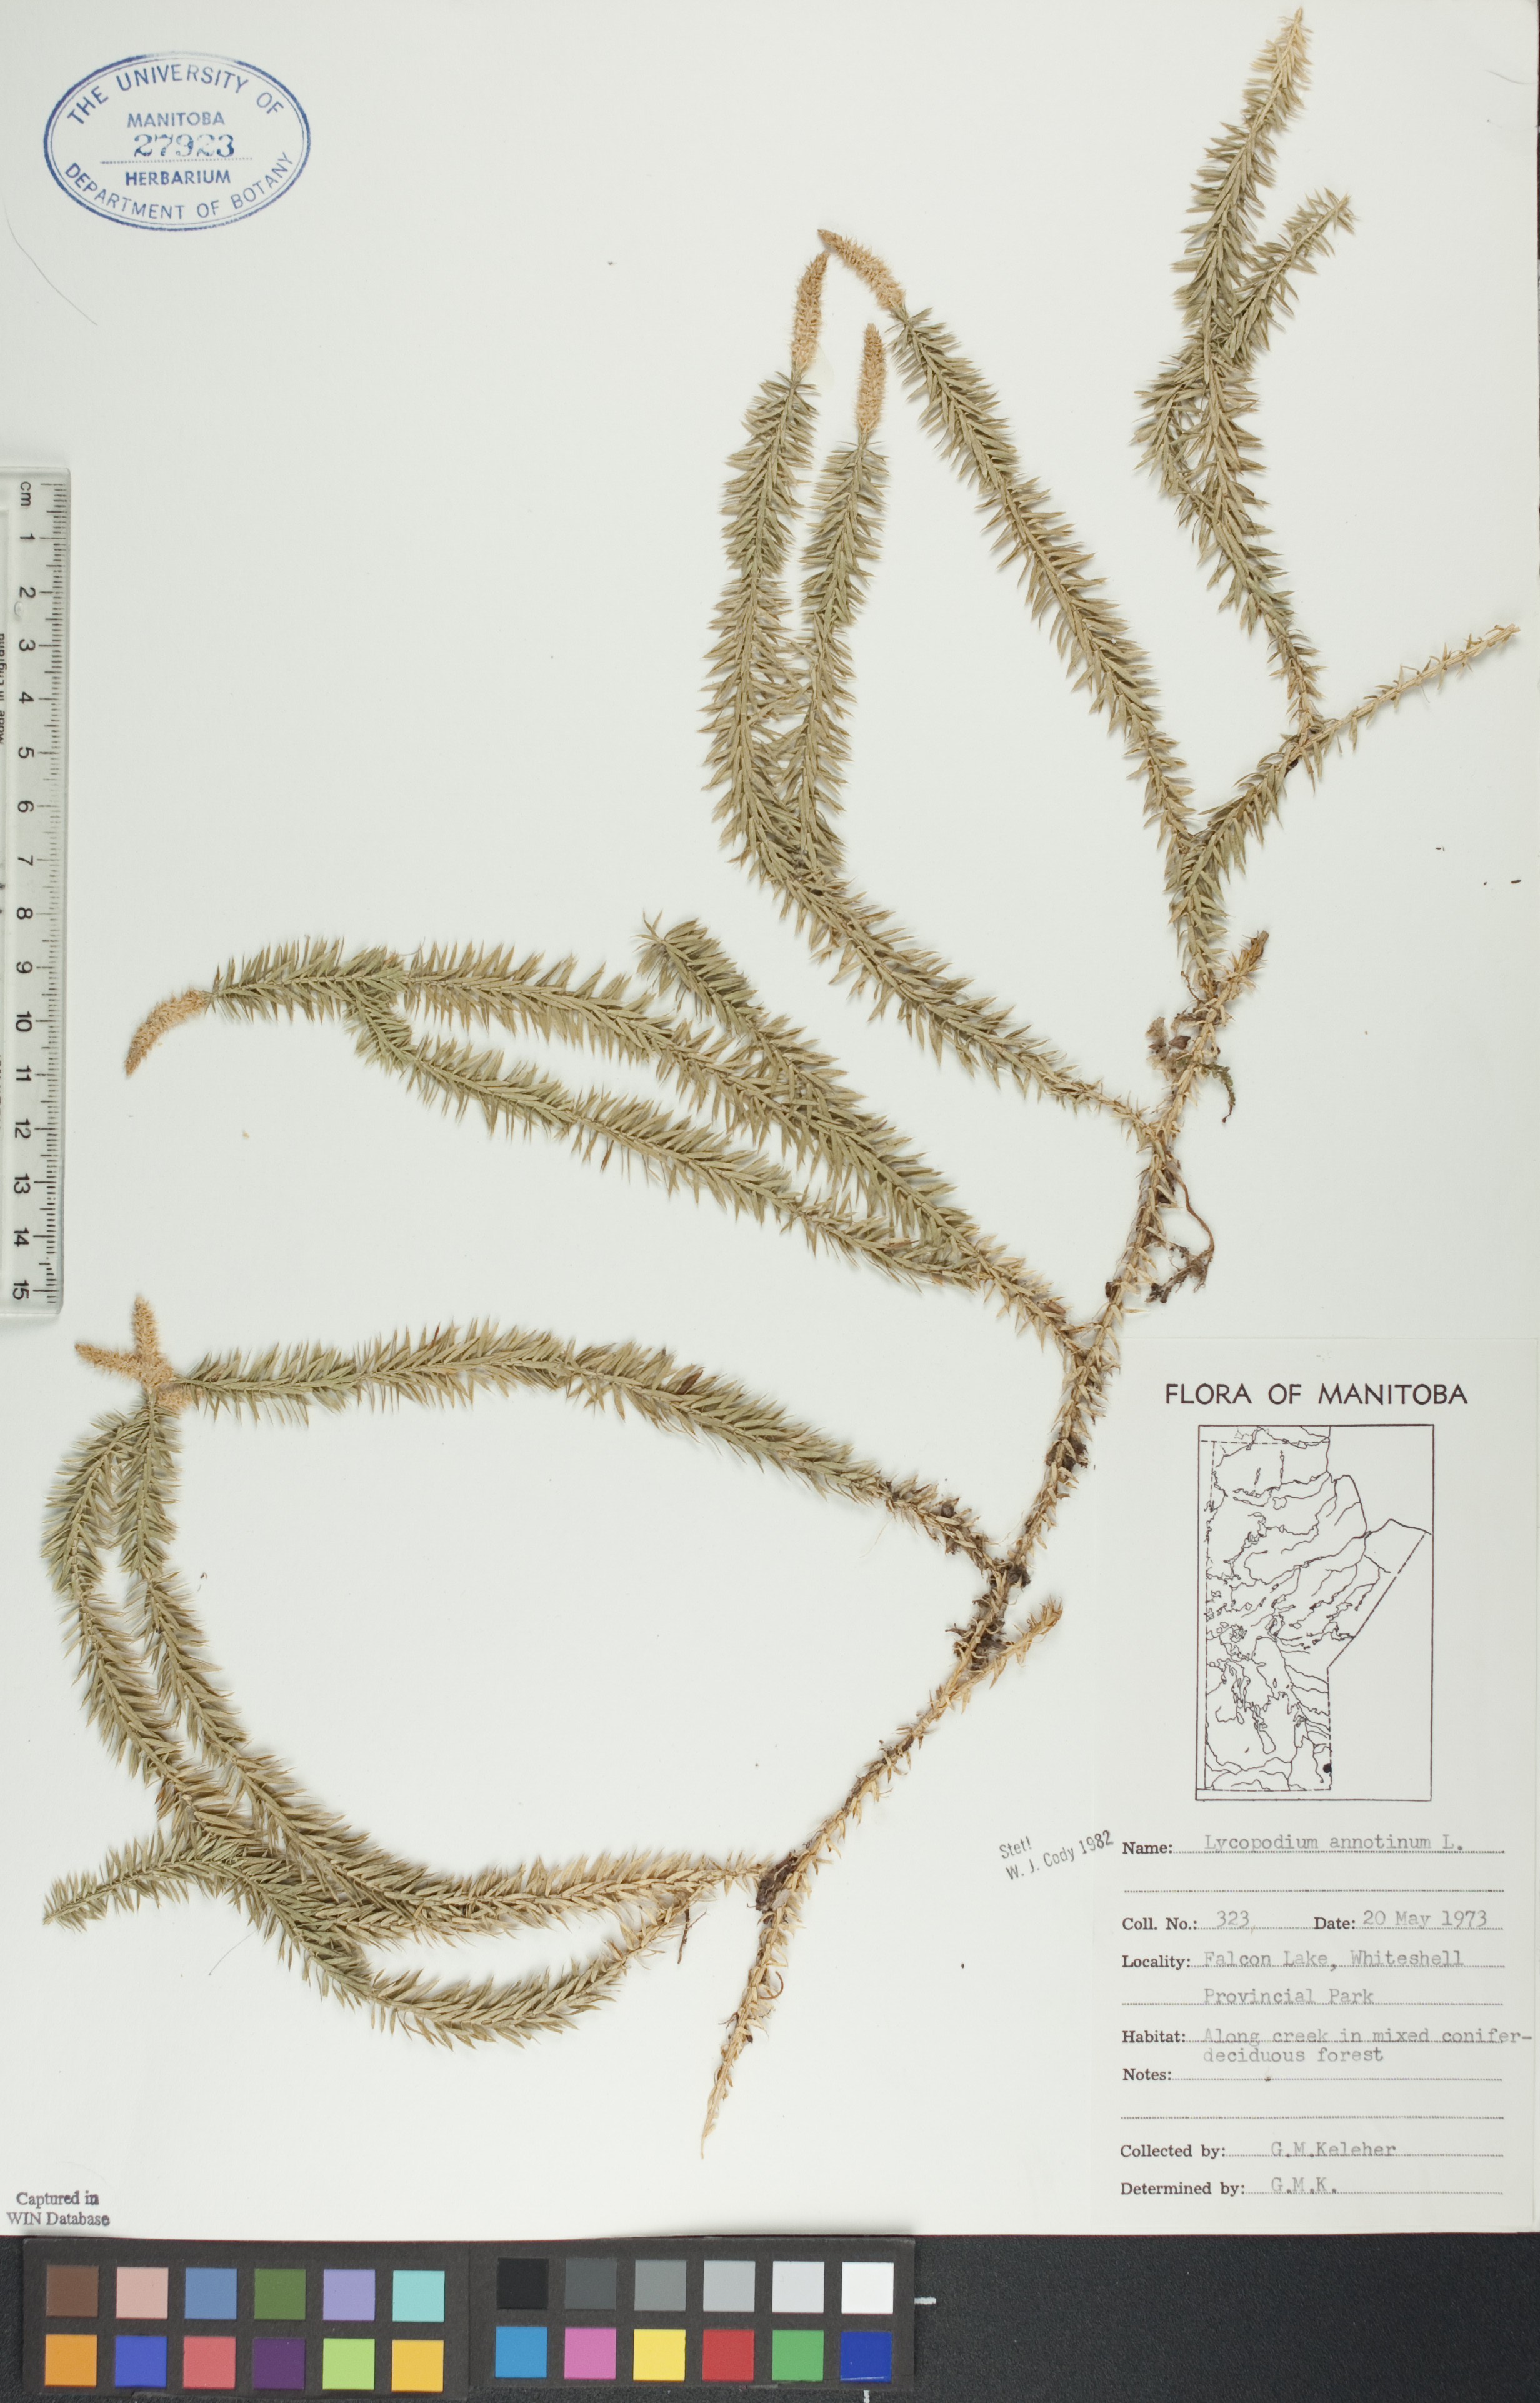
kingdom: Plantae
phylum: Tracheophyta
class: Lycopodiopsida
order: Lycopodiales
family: Lycopodiaceae
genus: Spinulum
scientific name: Spinulum annotinum
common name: Interrupted club-moss
